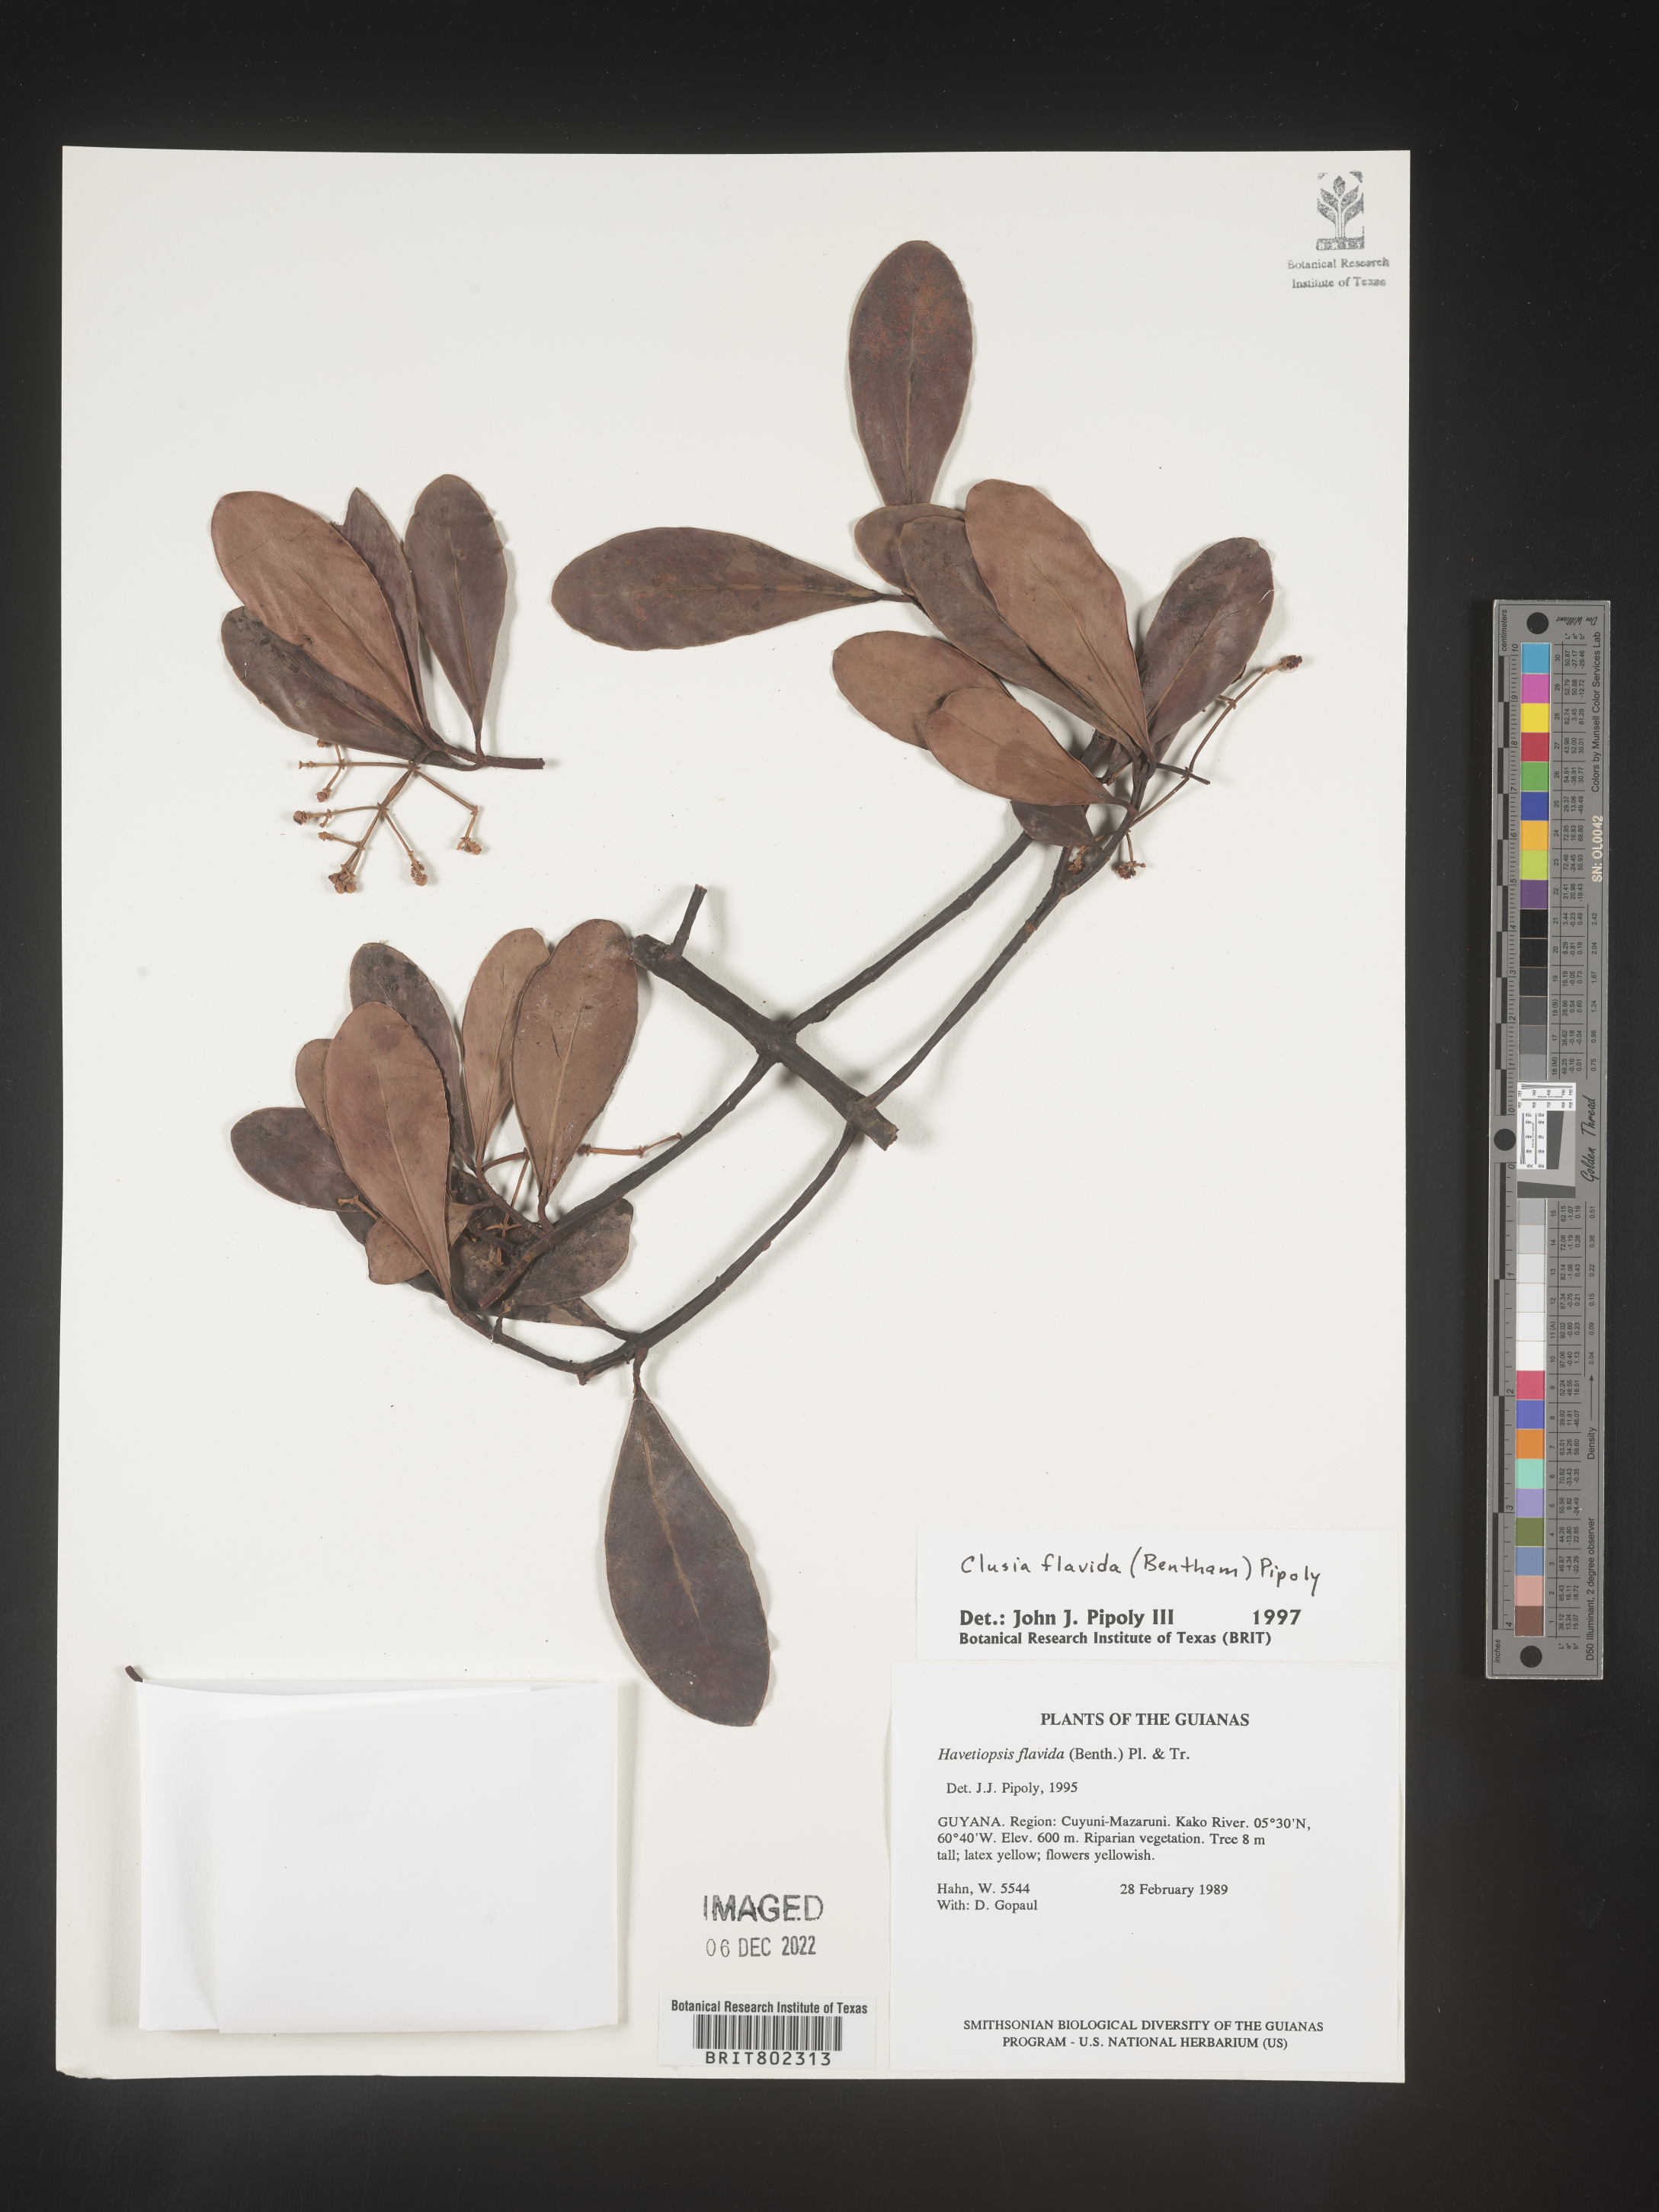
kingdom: Plantae
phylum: Tracheophyta
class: Magnoliopsida
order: Malpighiales
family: Clusiaceae
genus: Clusia
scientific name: Clusia flavida
